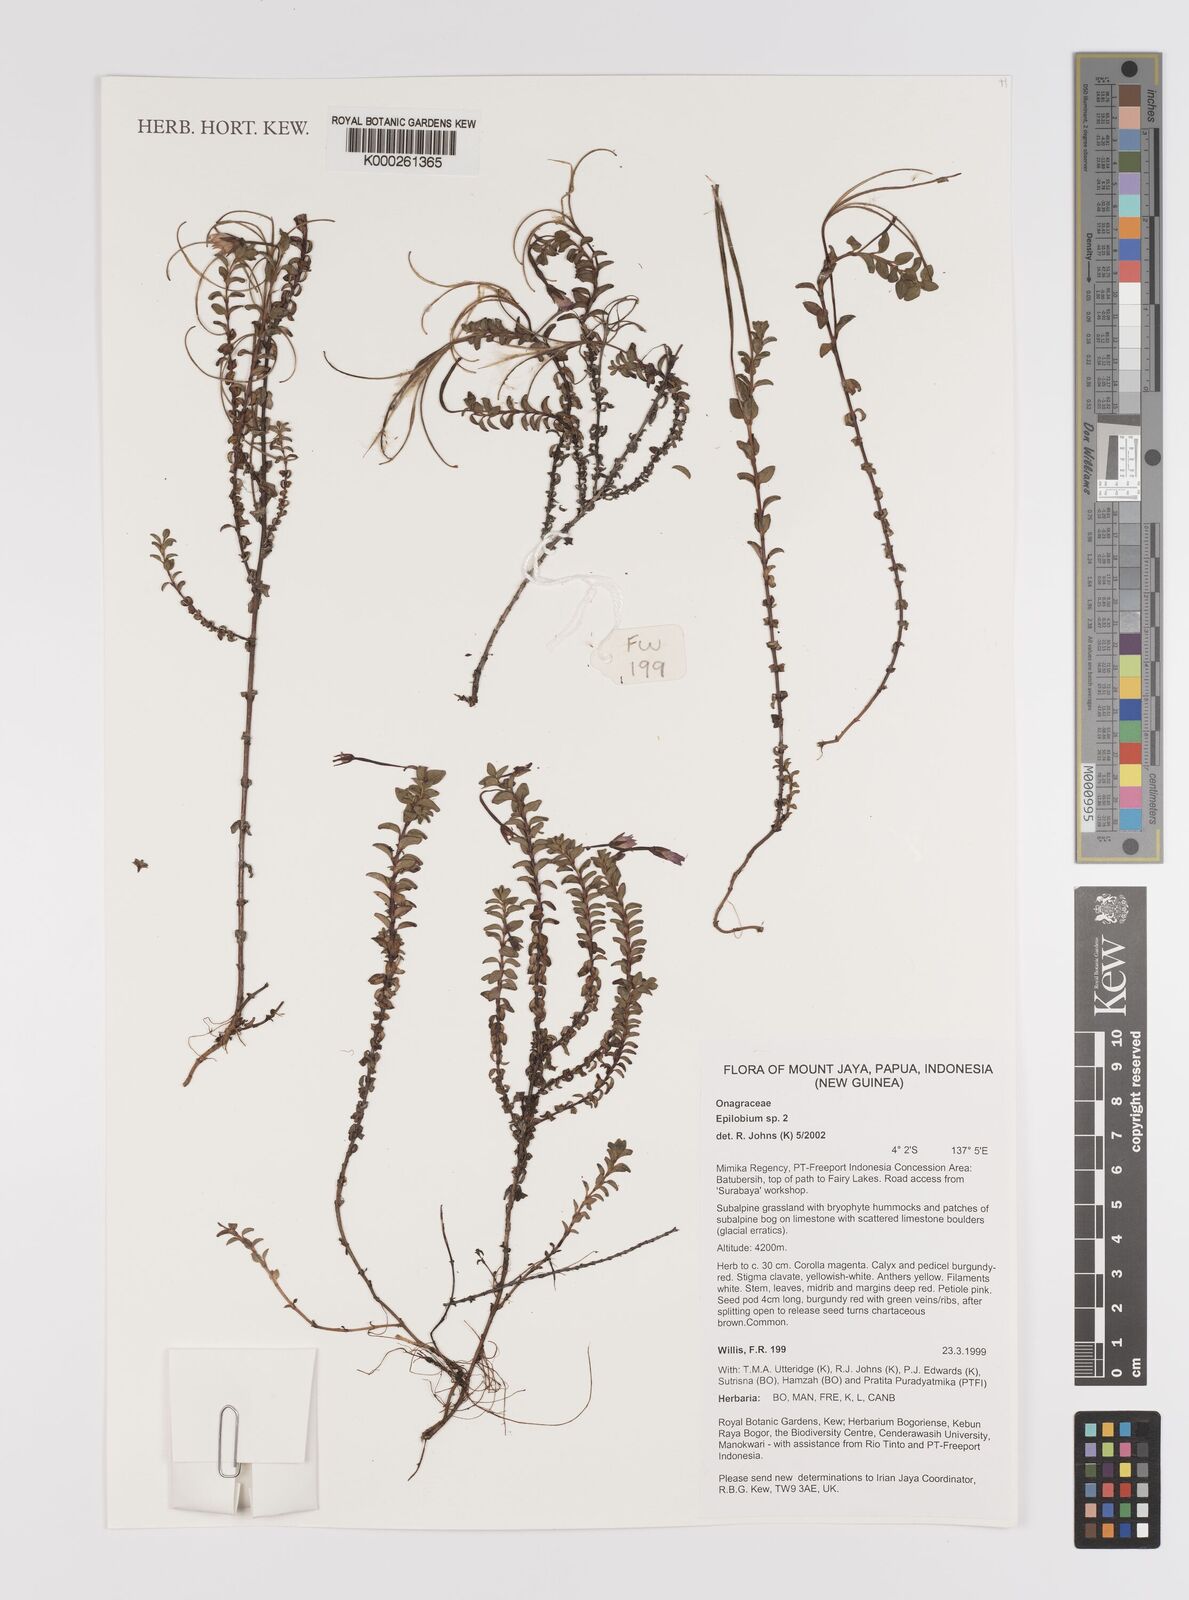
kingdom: Plantae
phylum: Tracheophyta
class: Magnoliopsida
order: Myrtales
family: Onagraceae
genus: Epilobium
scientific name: Epilobium
